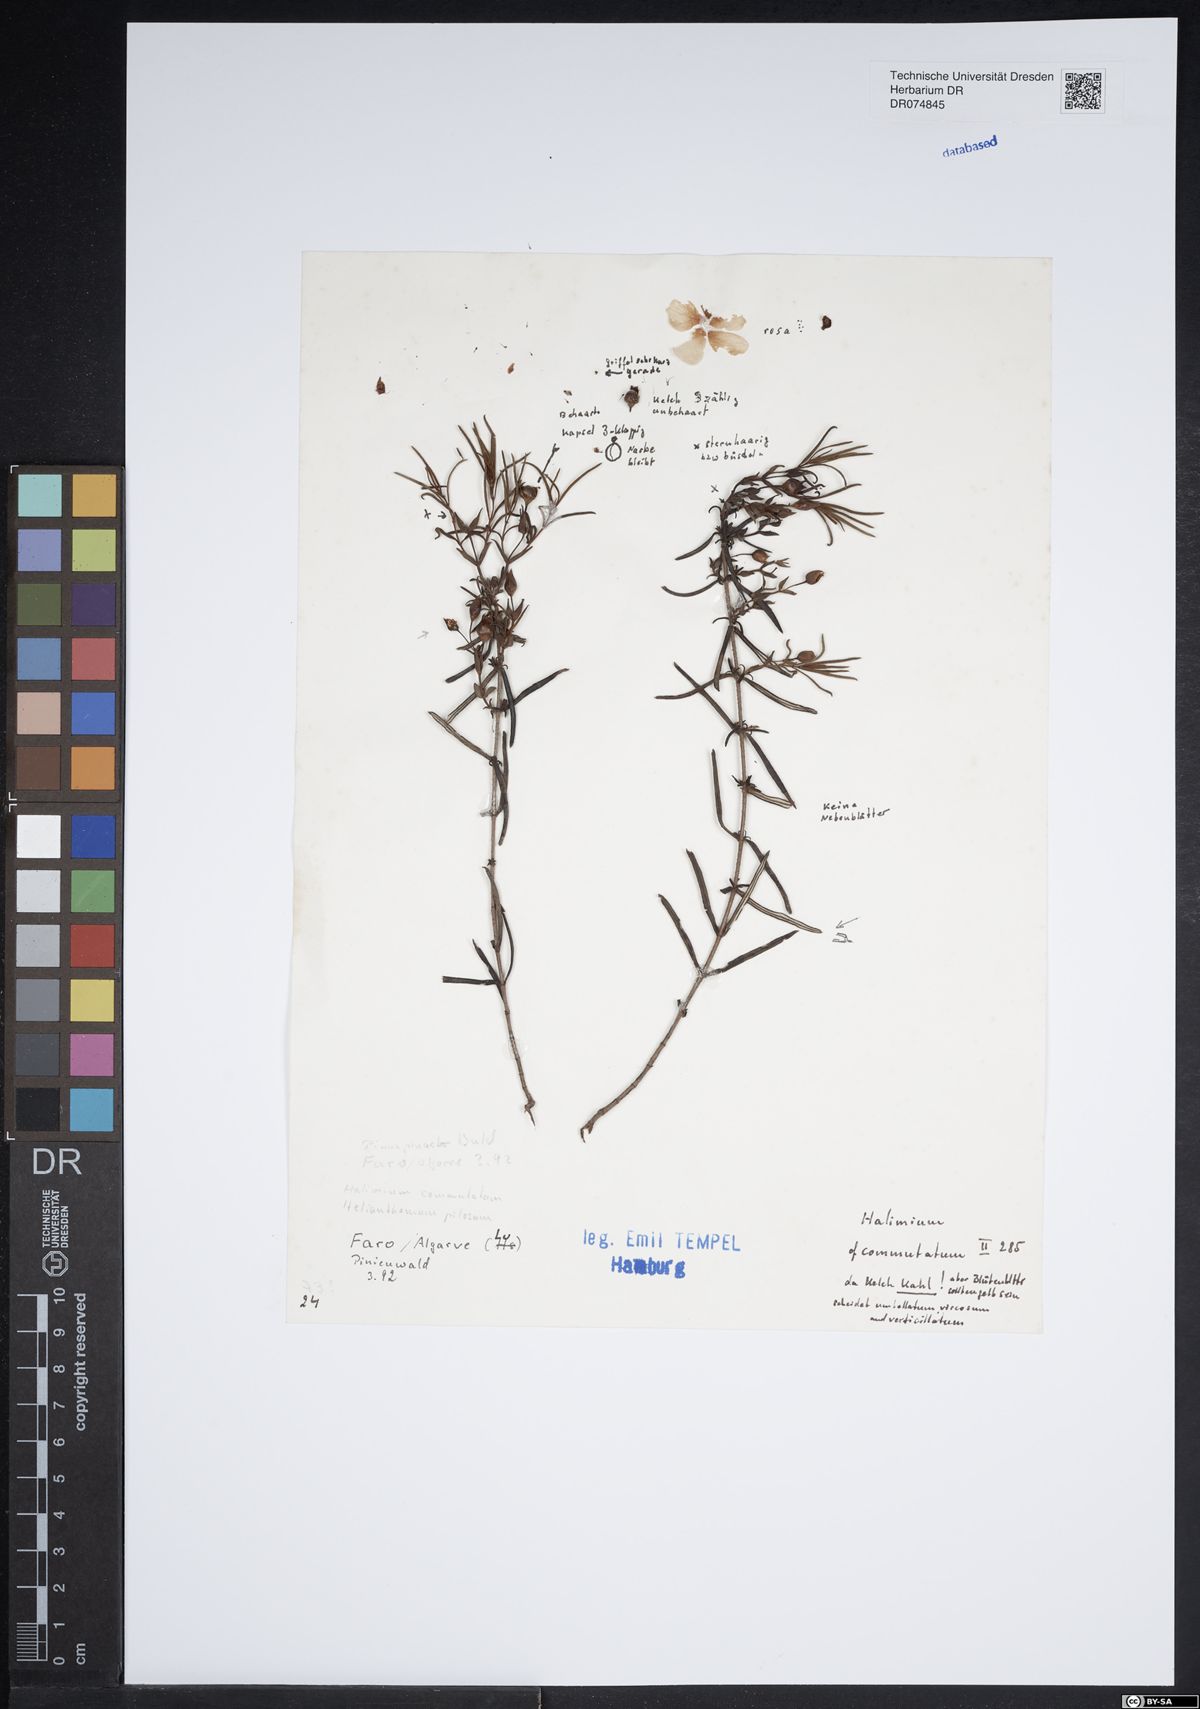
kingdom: Plantae
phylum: Tracheophyta
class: Magnoliopsida
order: Malvales
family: Cistaceae
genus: Halimium
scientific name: Halimium calycinum
